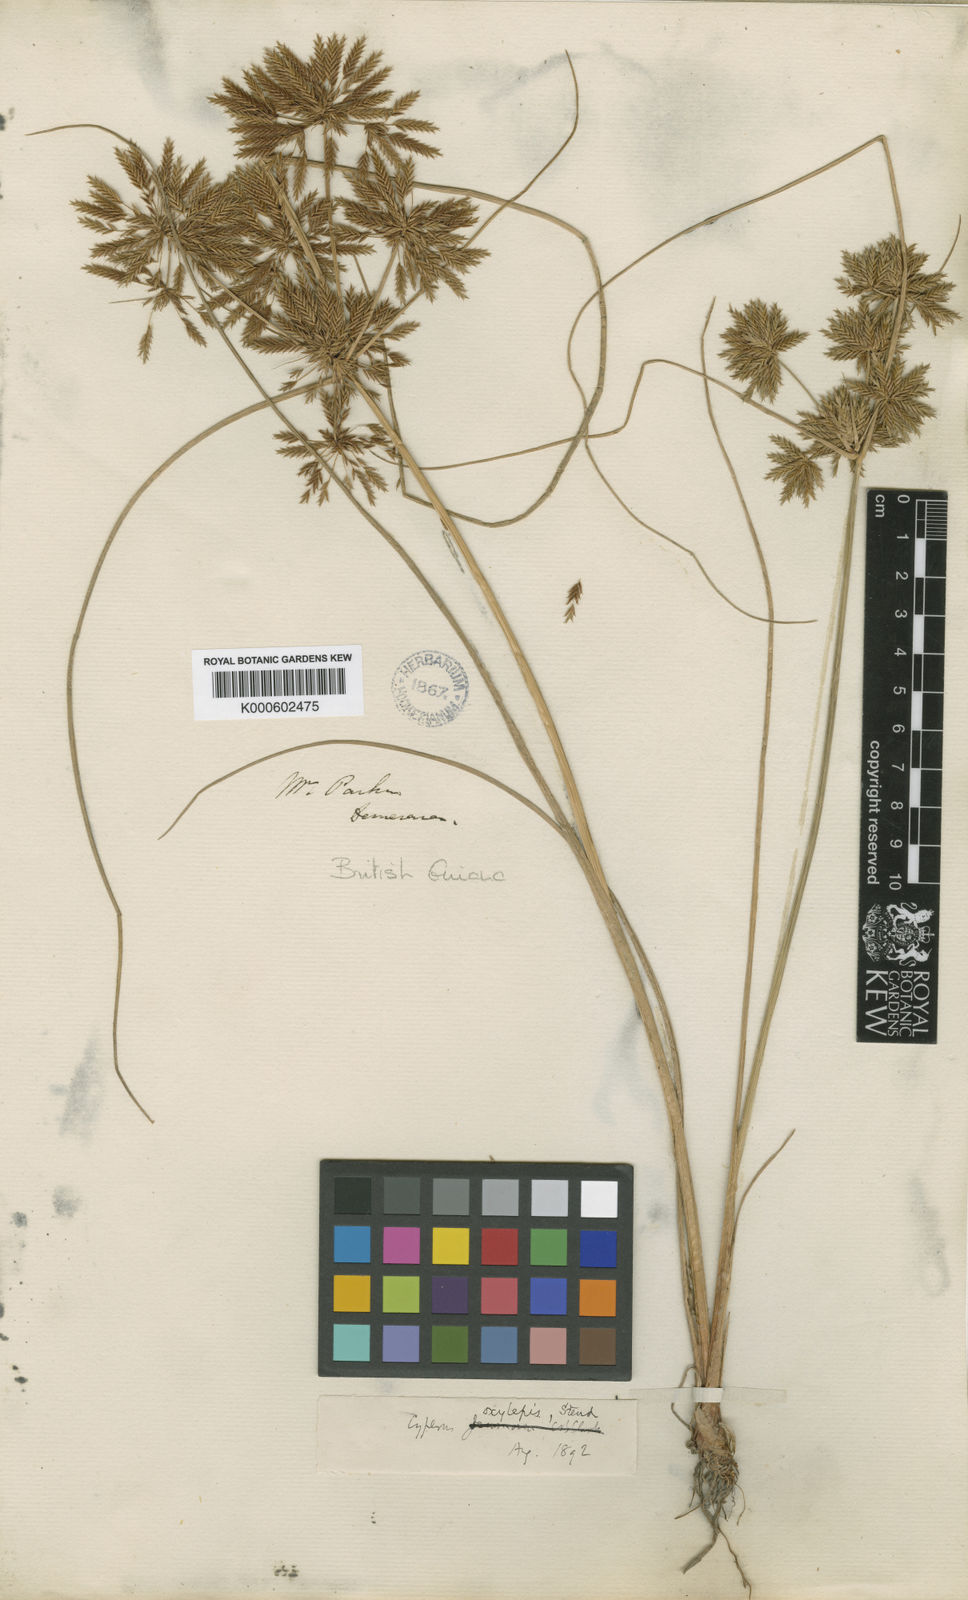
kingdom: Plantae
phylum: Tracheophyta
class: Liliopsida
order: Poales
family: Cyperaceae
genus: Cyperus
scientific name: Cyperus oxylepis
